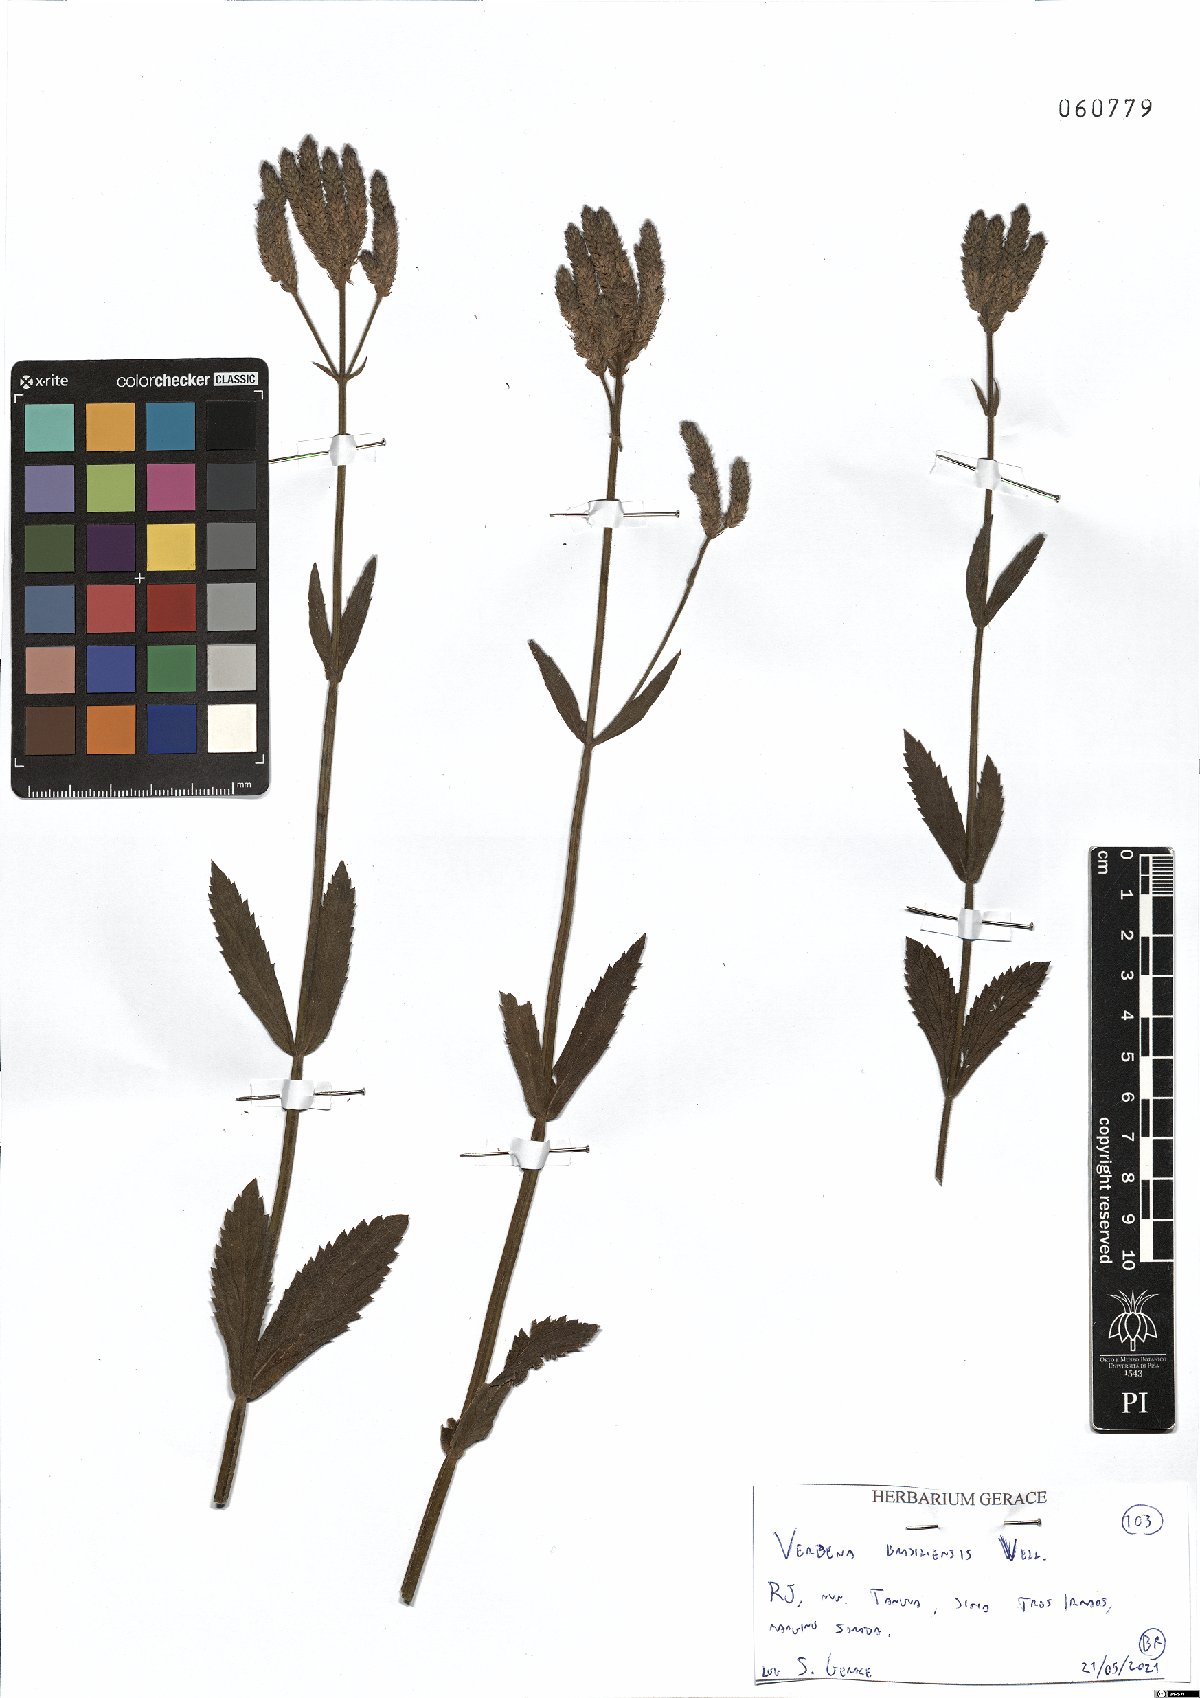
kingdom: Plantae
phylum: Tracheophyta
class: Magnoliopsida
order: Lamiales
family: Verbenaceae
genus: Verbena
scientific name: Verbena brasiliensis
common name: Brazilian vervain
